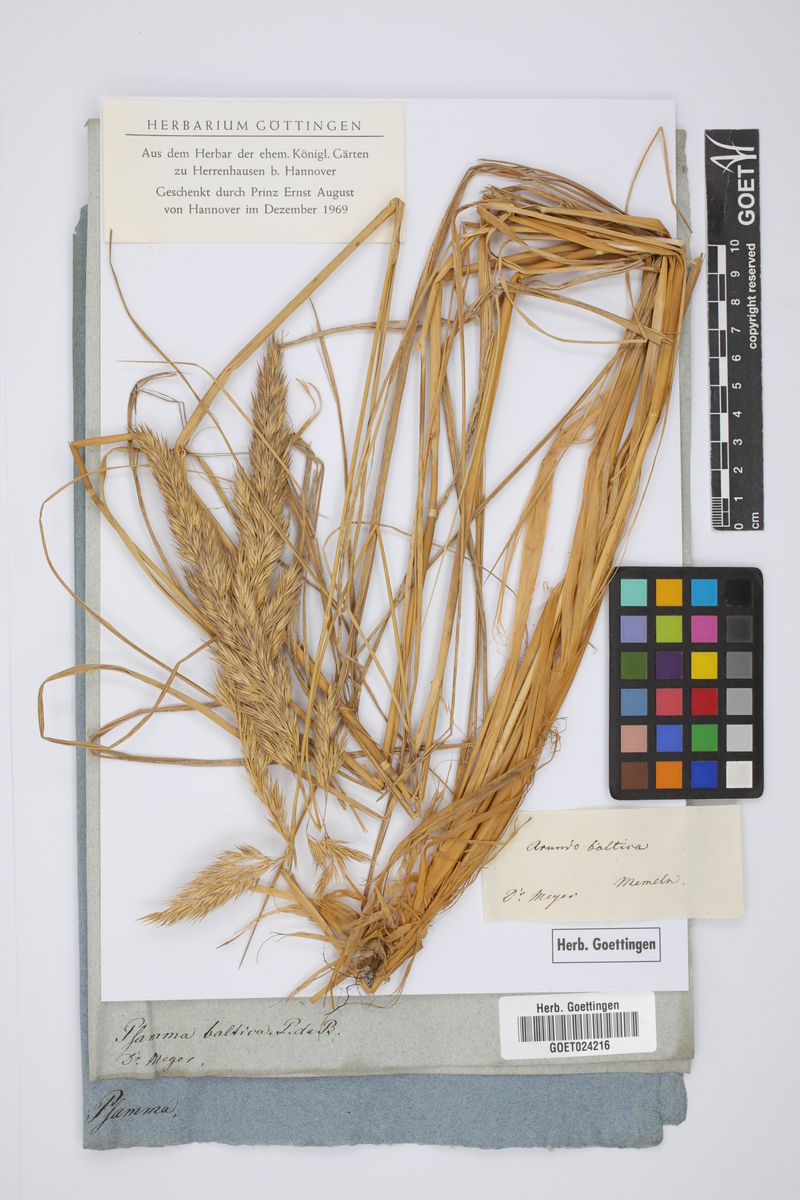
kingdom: Plantae
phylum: Tracheophyta
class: Liliopsida
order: Poales
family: Poaceae
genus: Calamagrostis
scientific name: Calamagrostis baltica
